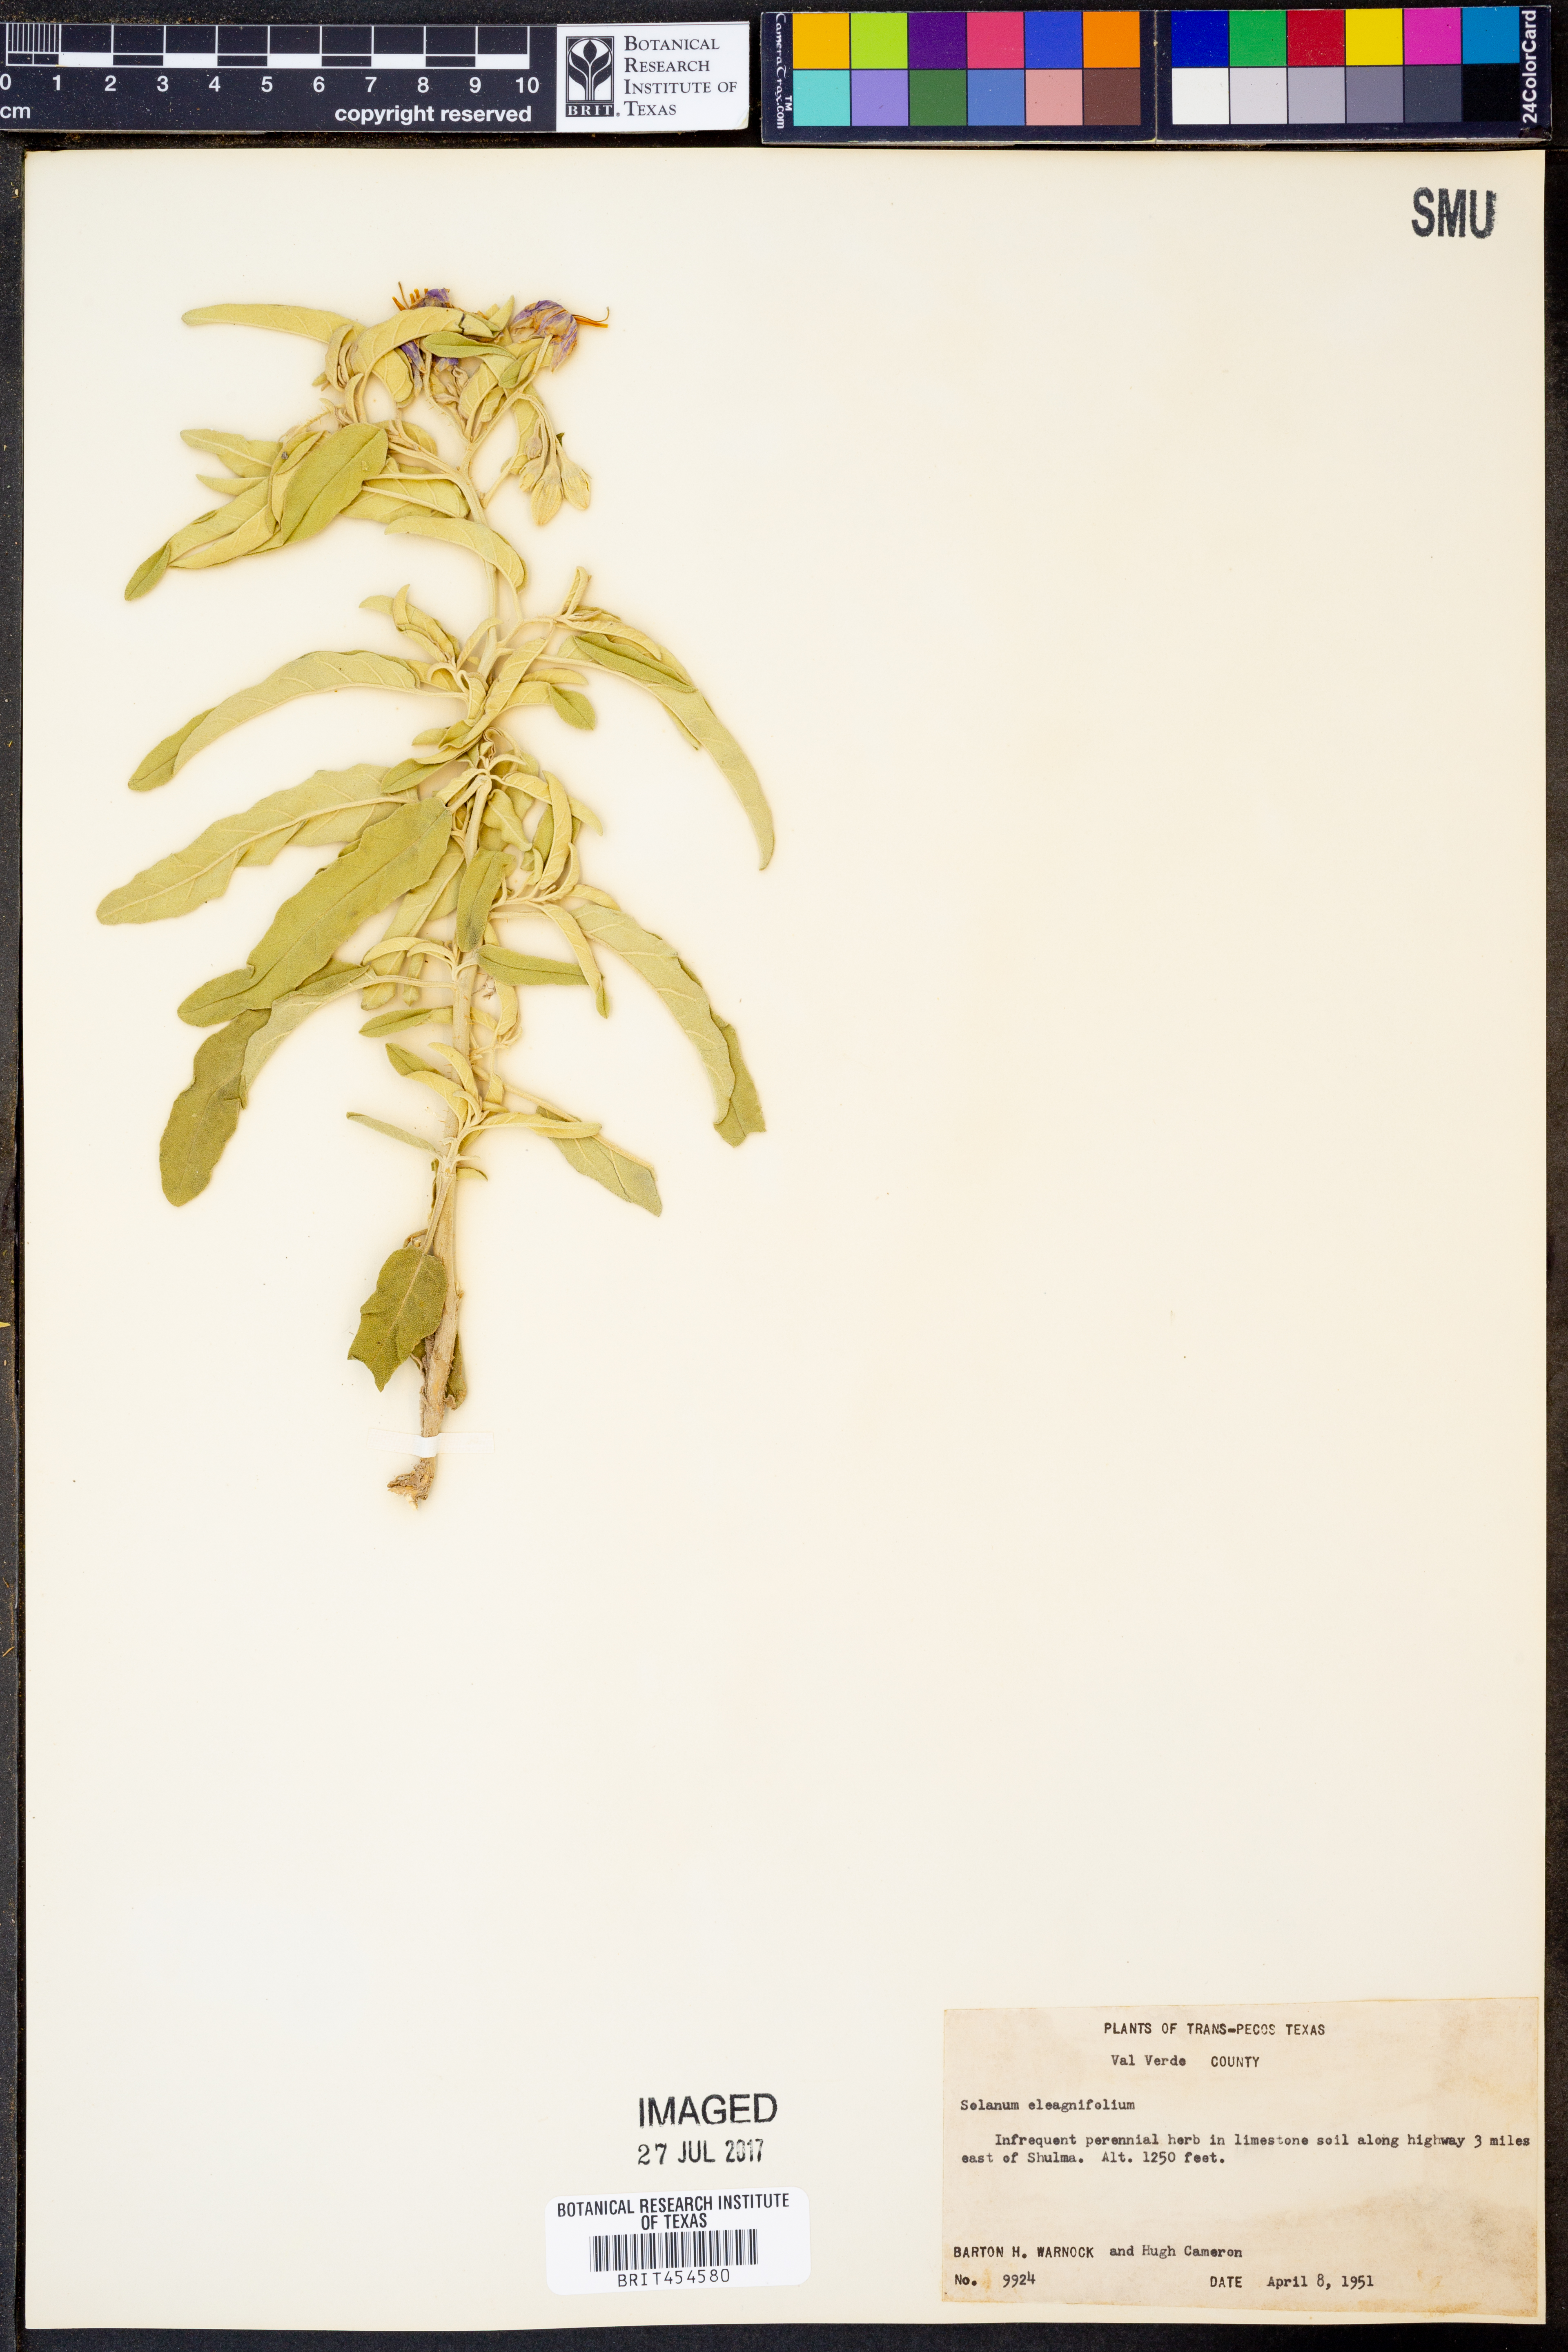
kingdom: Plantae
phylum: Tracheophyta
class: Magnoliopsida
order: Solanales
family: Solanaceae
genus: Solanum
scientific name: Solanum elaeagnifolium
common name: Silverleaf nightshade
